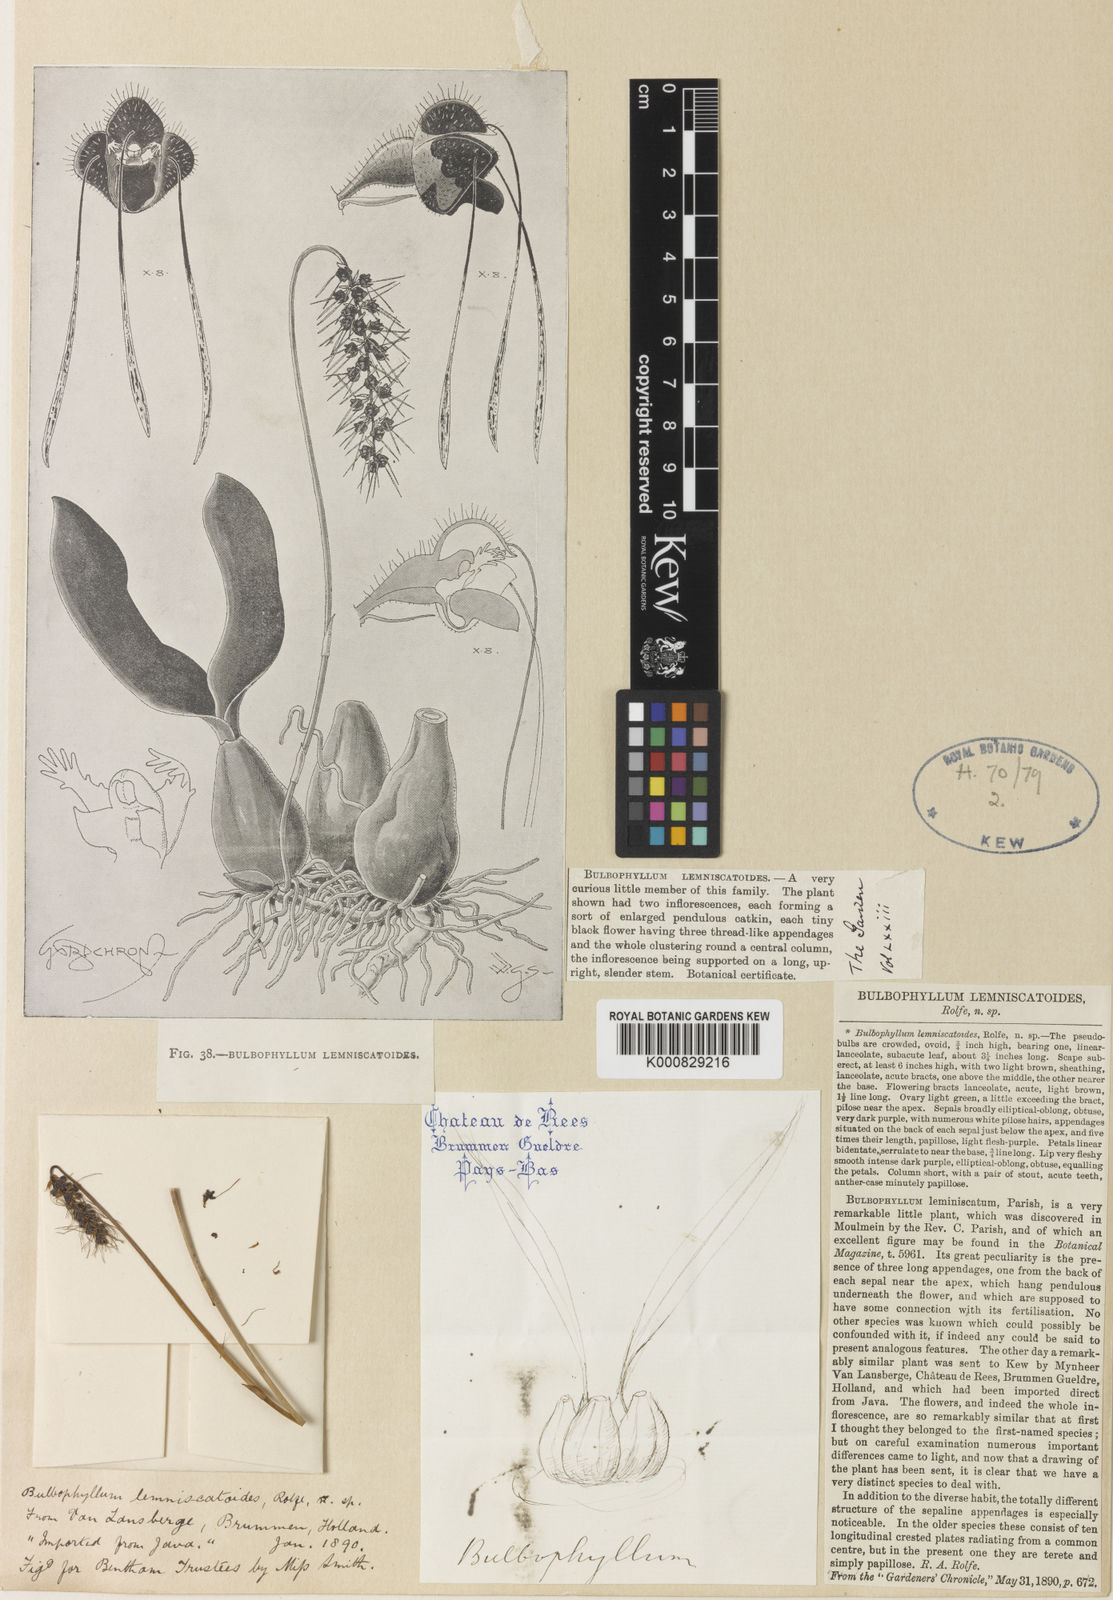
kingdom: Plantae
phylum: Tracheophyta
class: Liliopsida
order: Asparagales
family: Orchidaceae
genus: Bulbophyllum
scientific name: Bulbophyllum lemniscatoides
